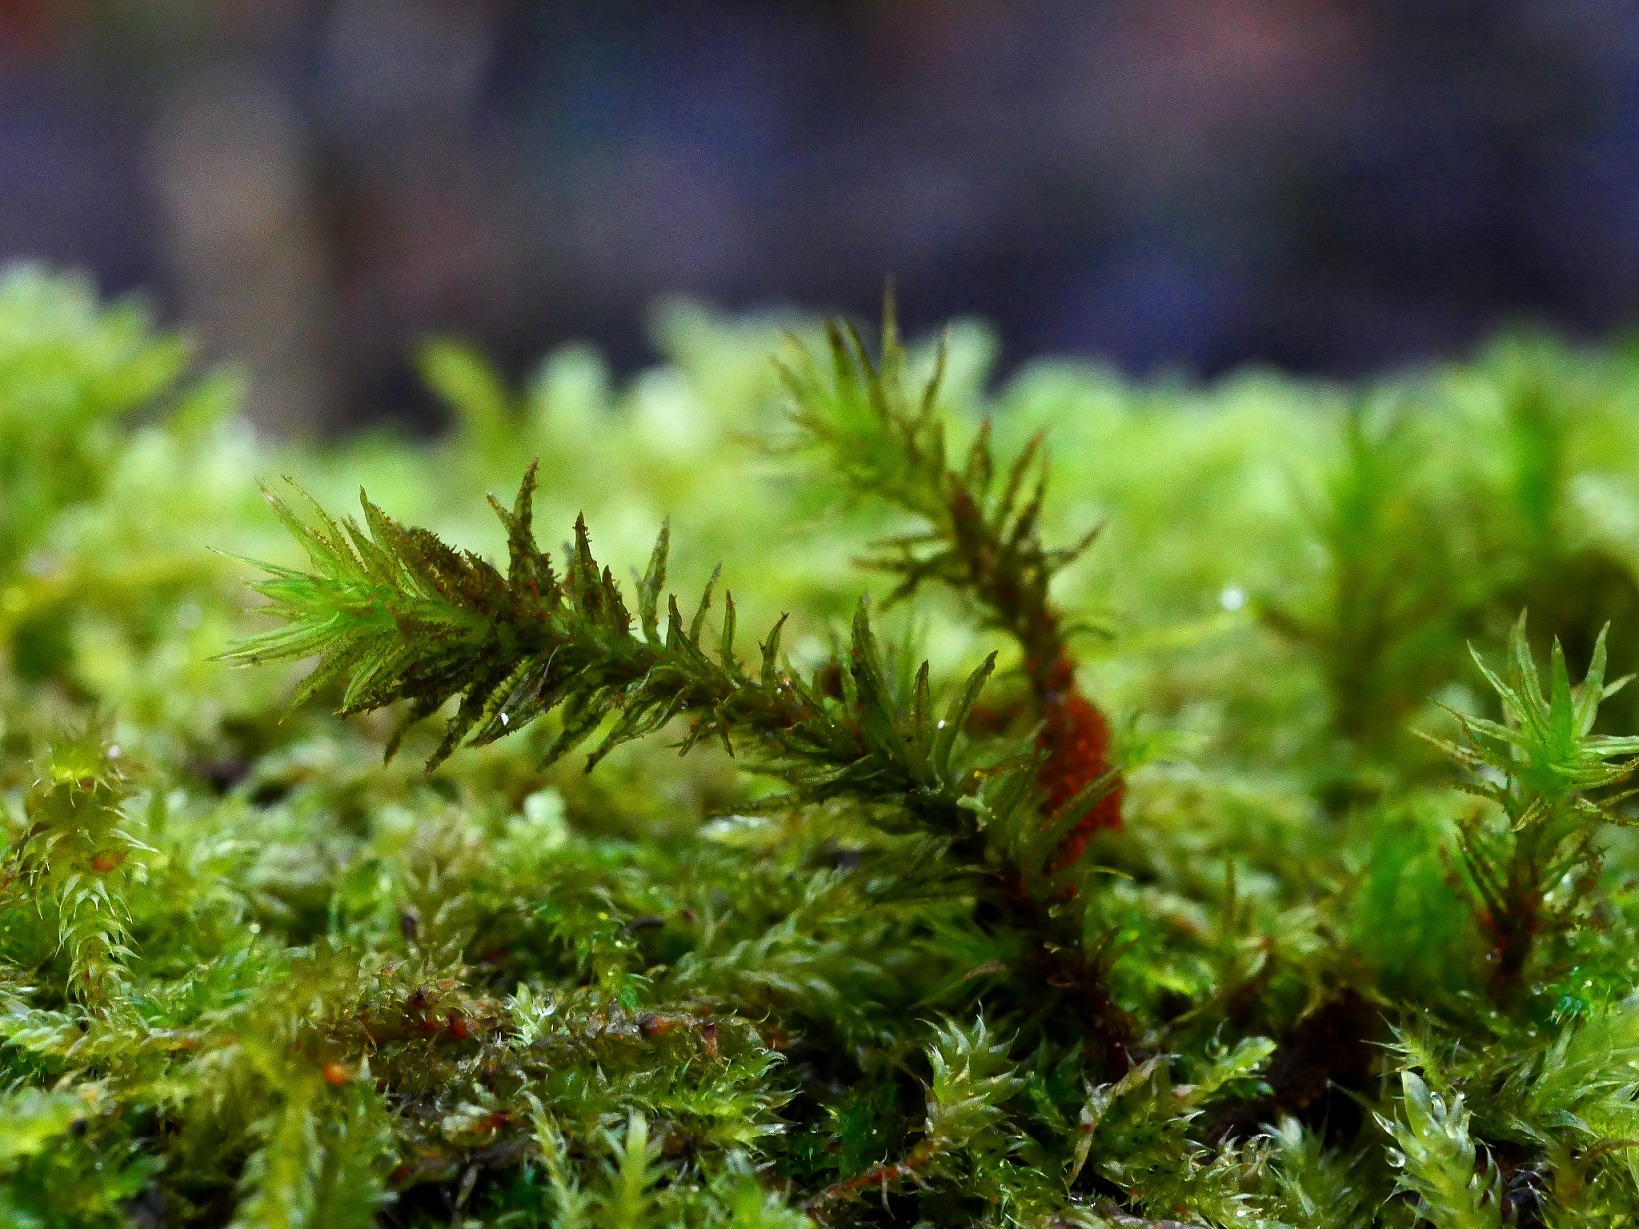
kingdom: Plantae
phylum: Bryophyta
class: Bryopsida
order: Orthotrichales
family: Orthotrichaceae
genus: Pulvigera
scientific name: Pulvigera lyellii
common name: Stor furehætte
